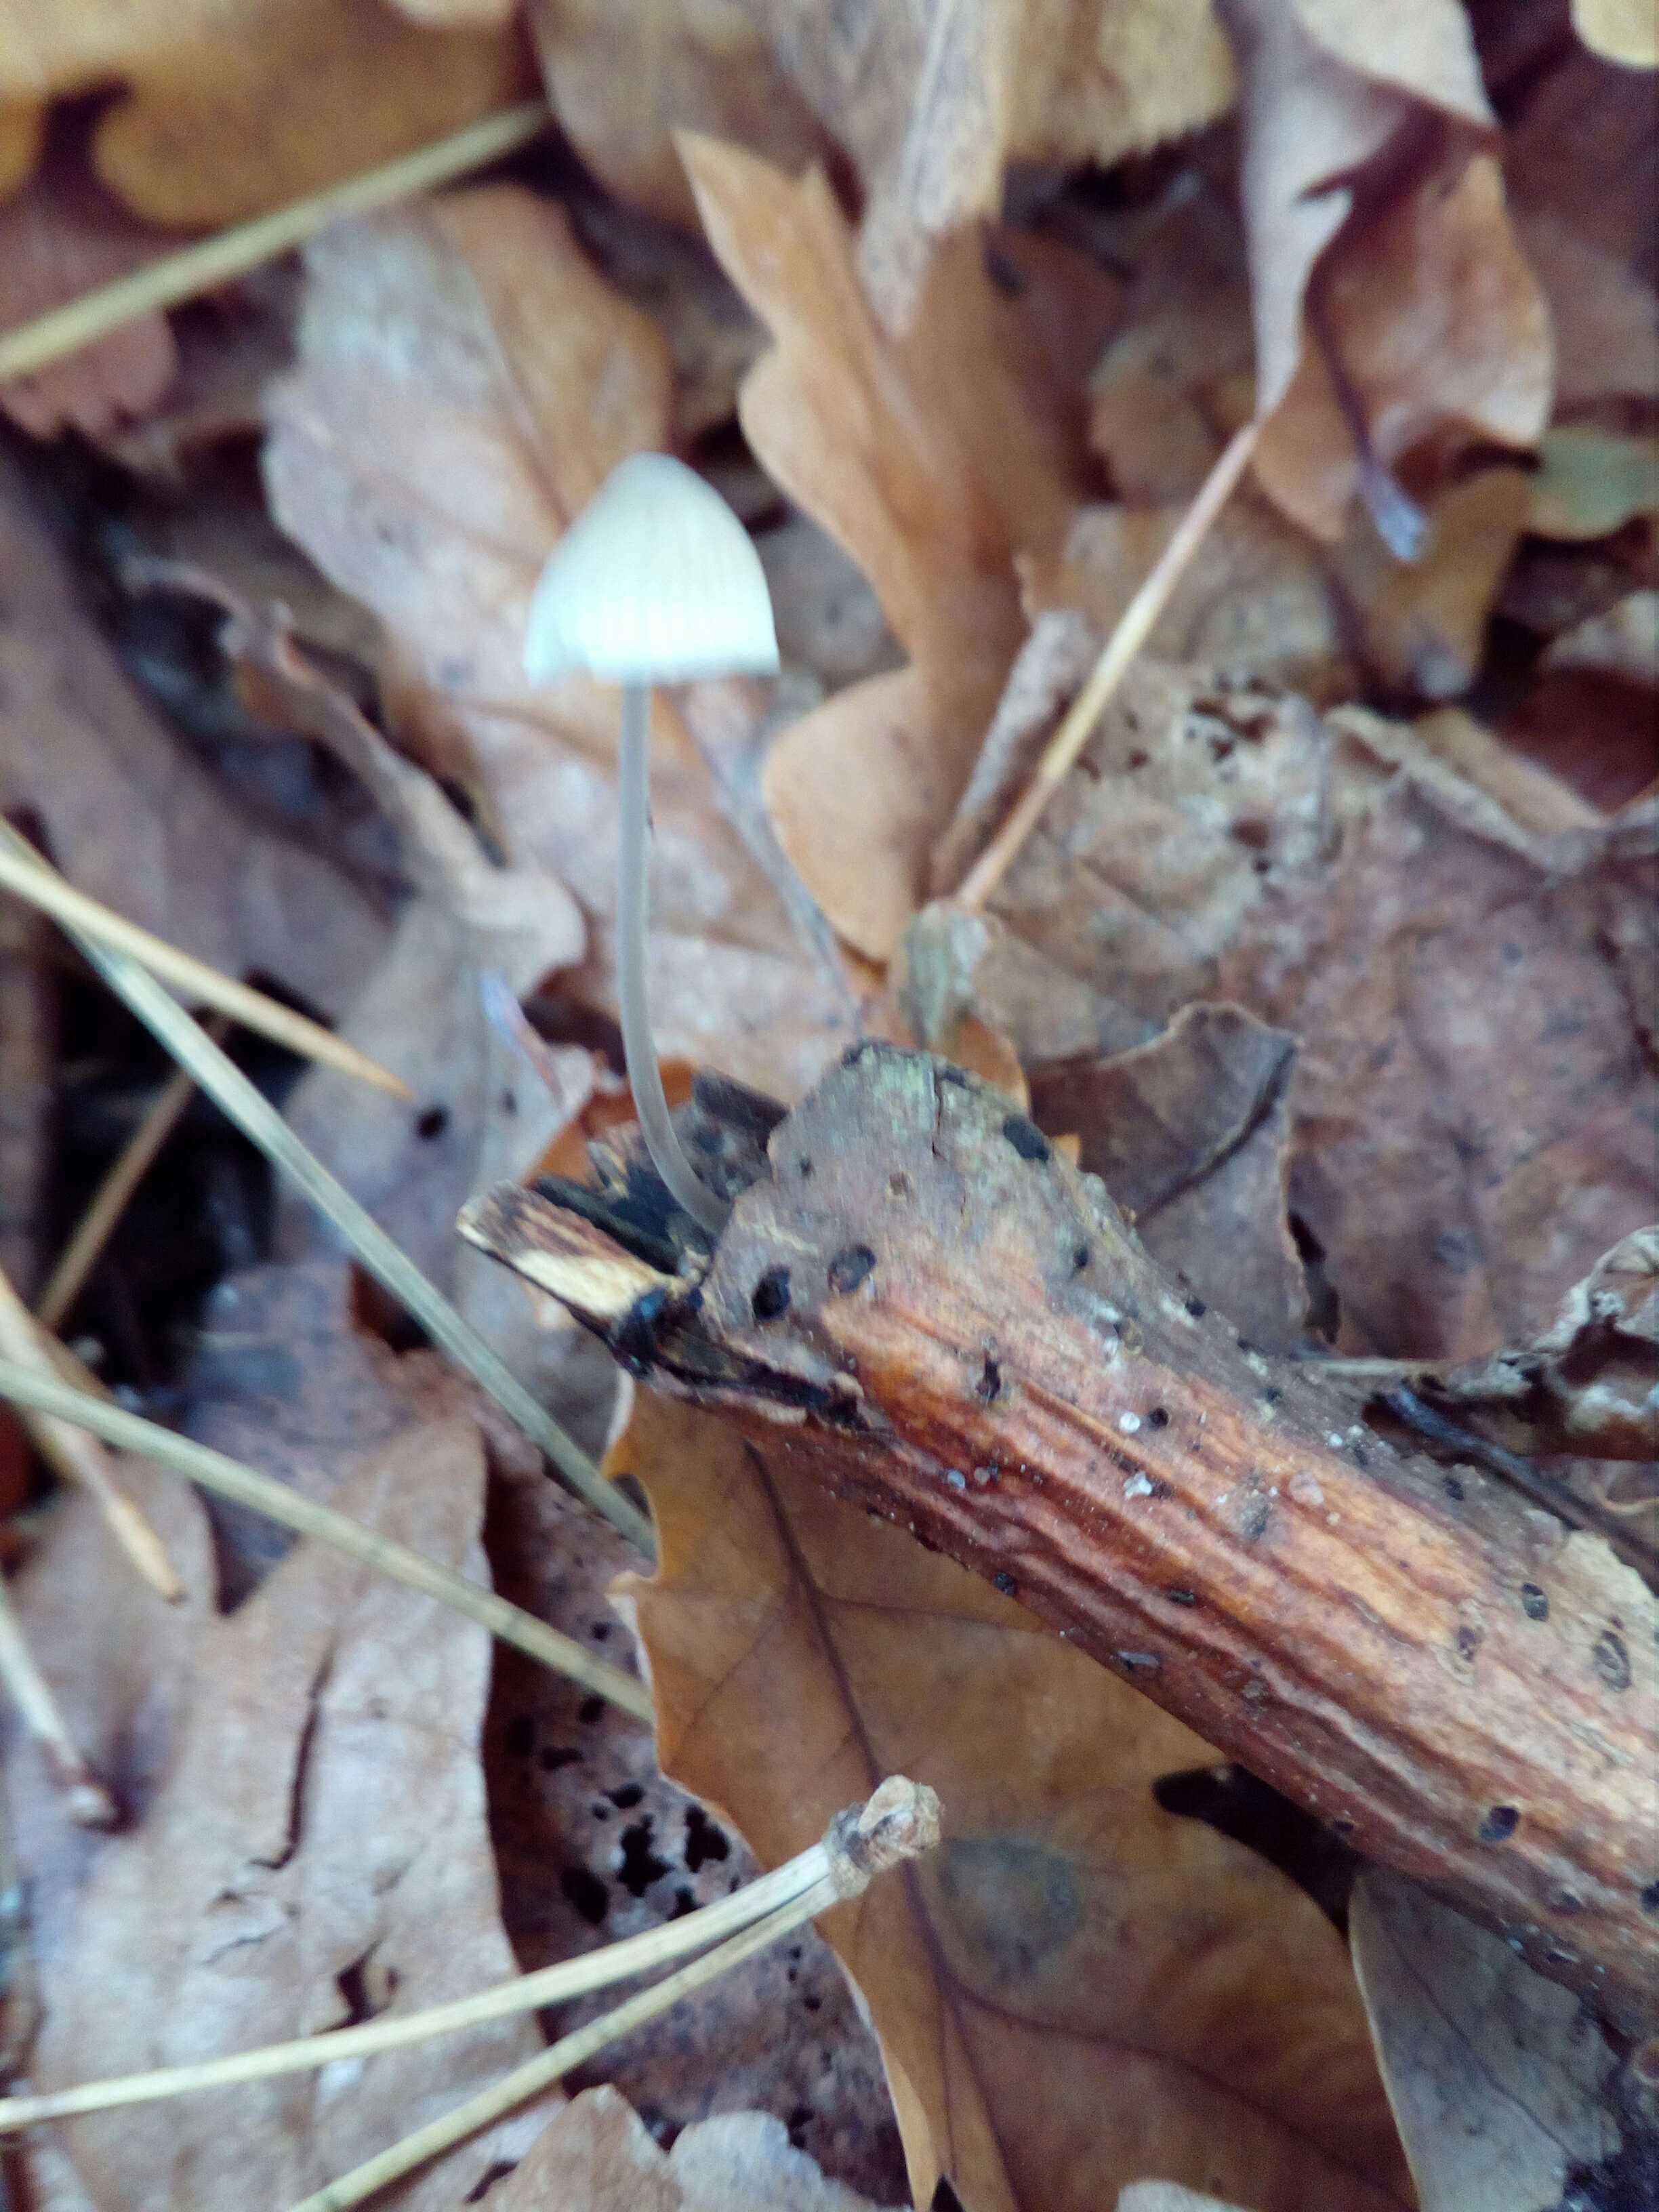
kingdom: Fungi
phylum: Basidiomycota
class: Agaricomycetes
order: Agaricales
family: Mycenaceae
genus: Mycena
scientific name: Mycena vitilis
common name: blankstokket huesvamp
